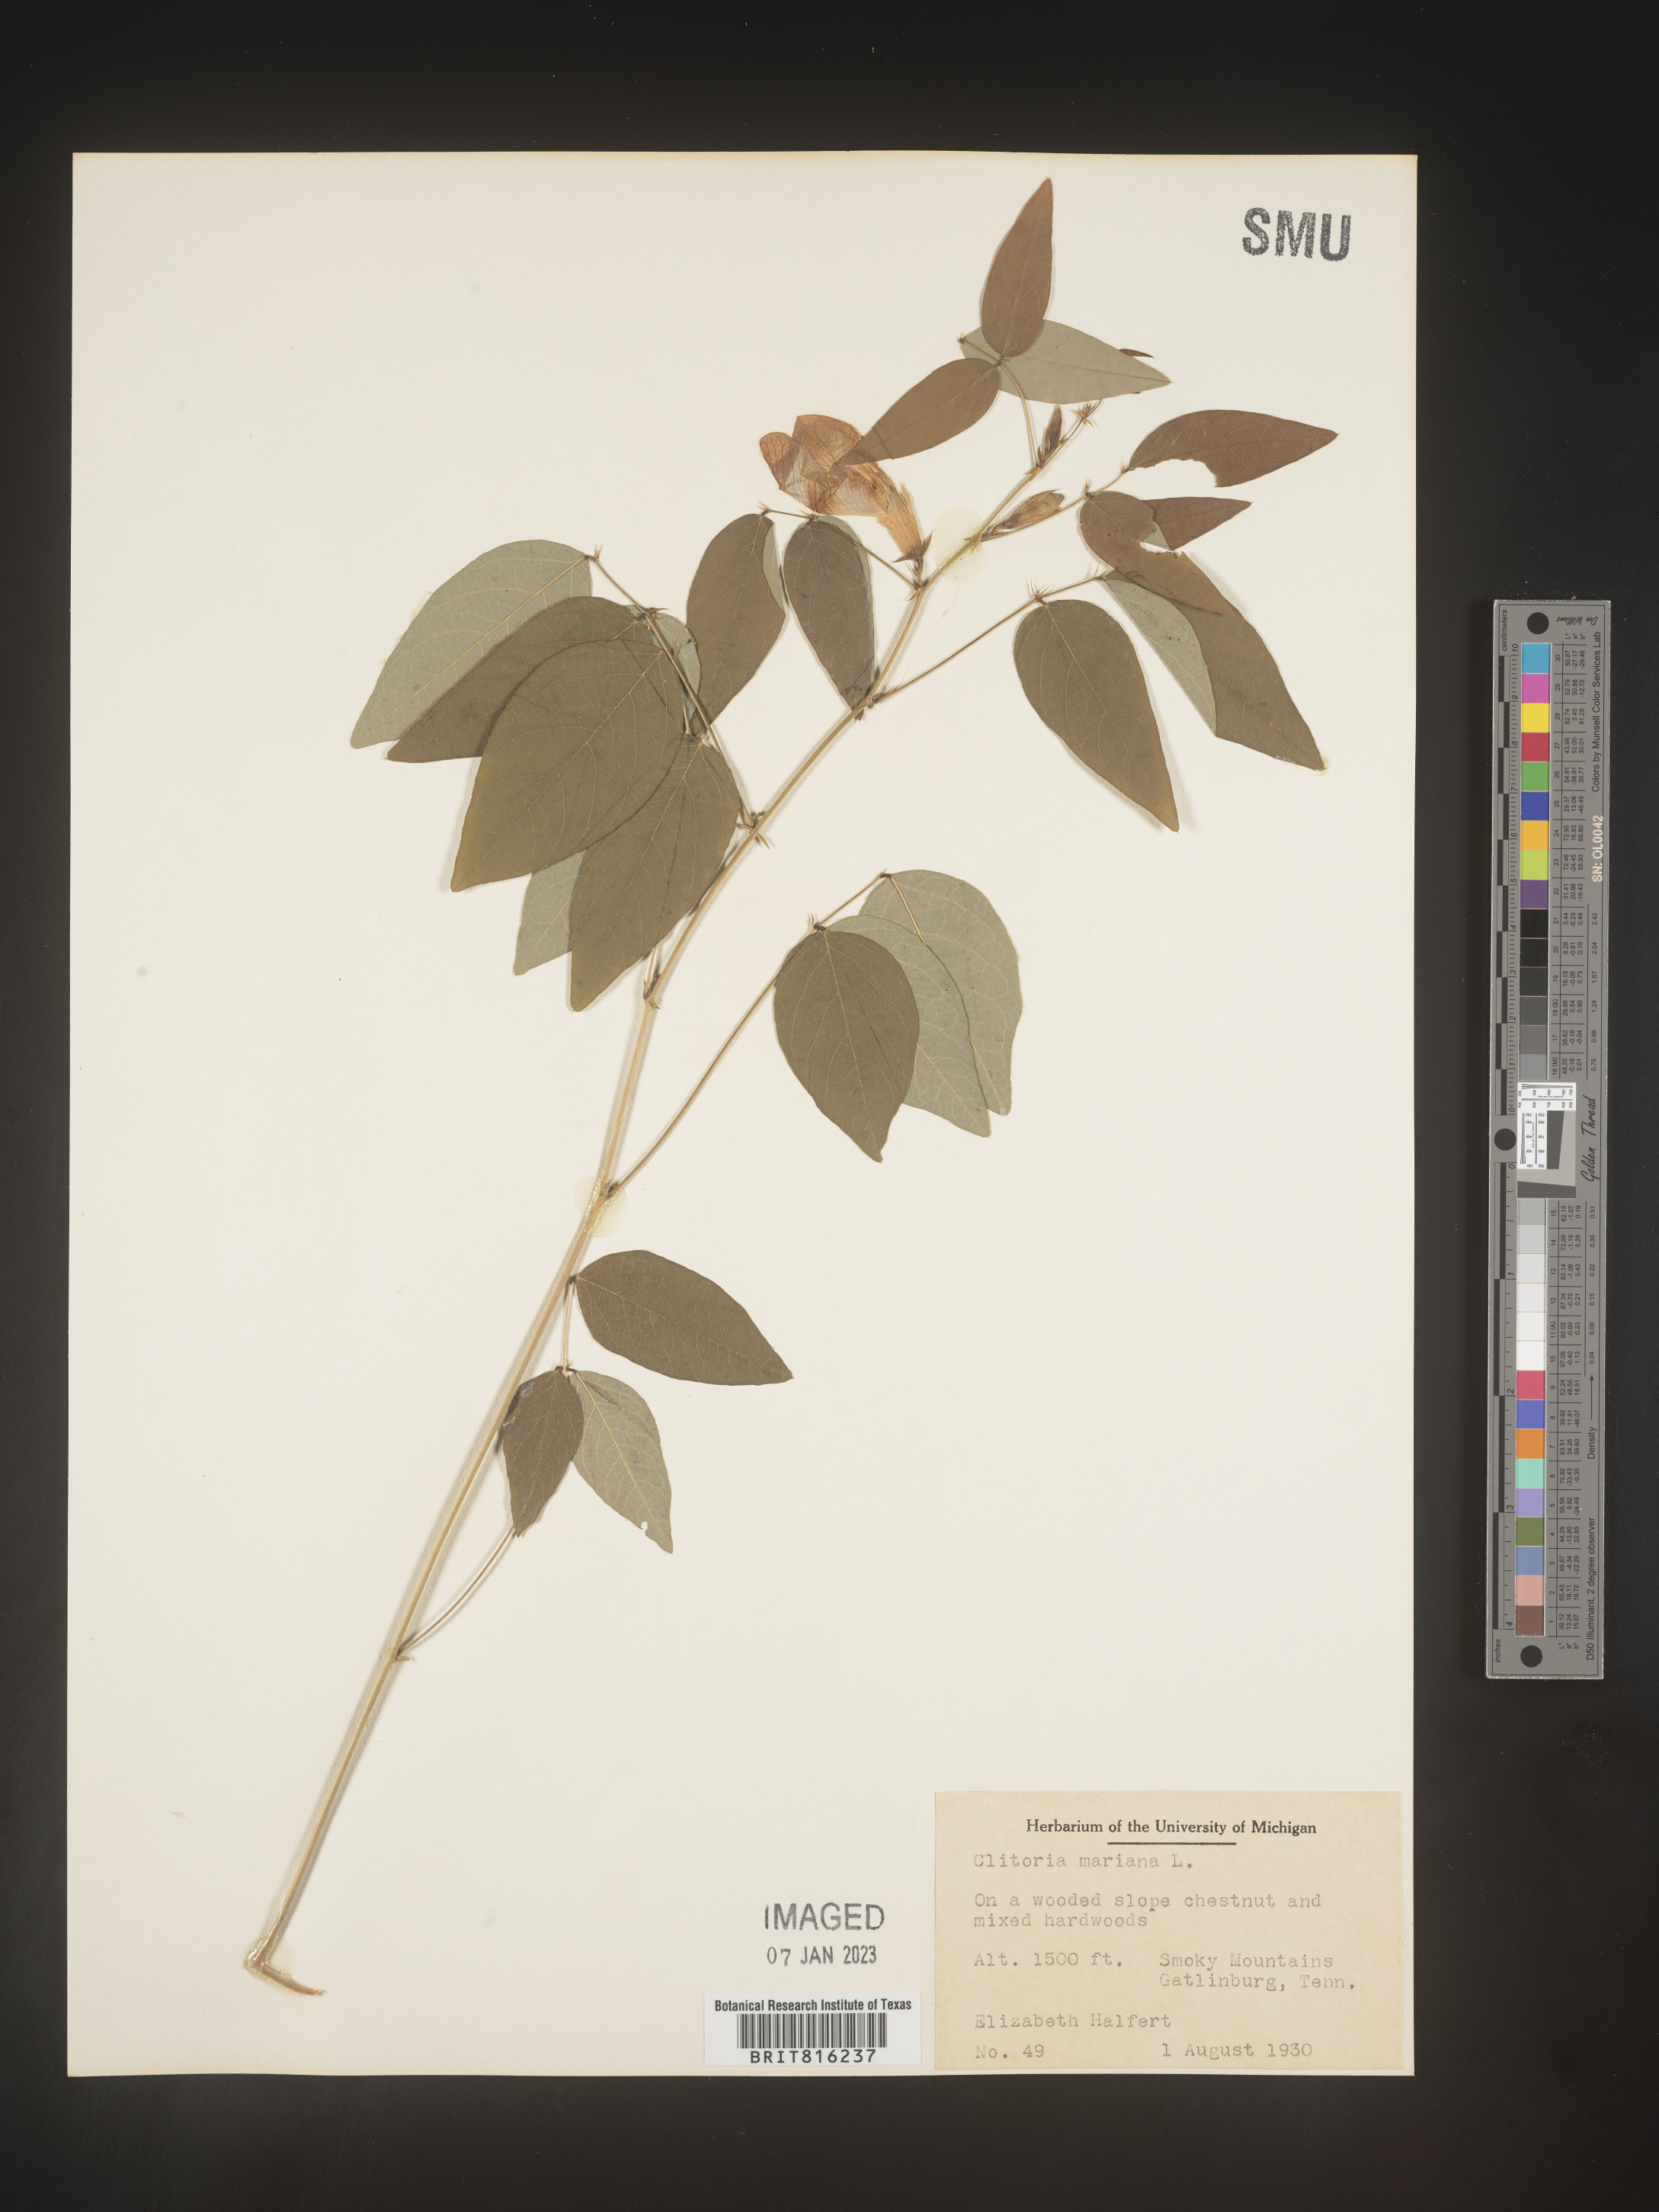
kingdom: Plantae
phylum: Tracheophyta
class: Magnoliopsida
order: Fabales
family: Fabaceae
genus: Clitoria
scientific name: Clitoria mariana
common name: Butterfly-pea
